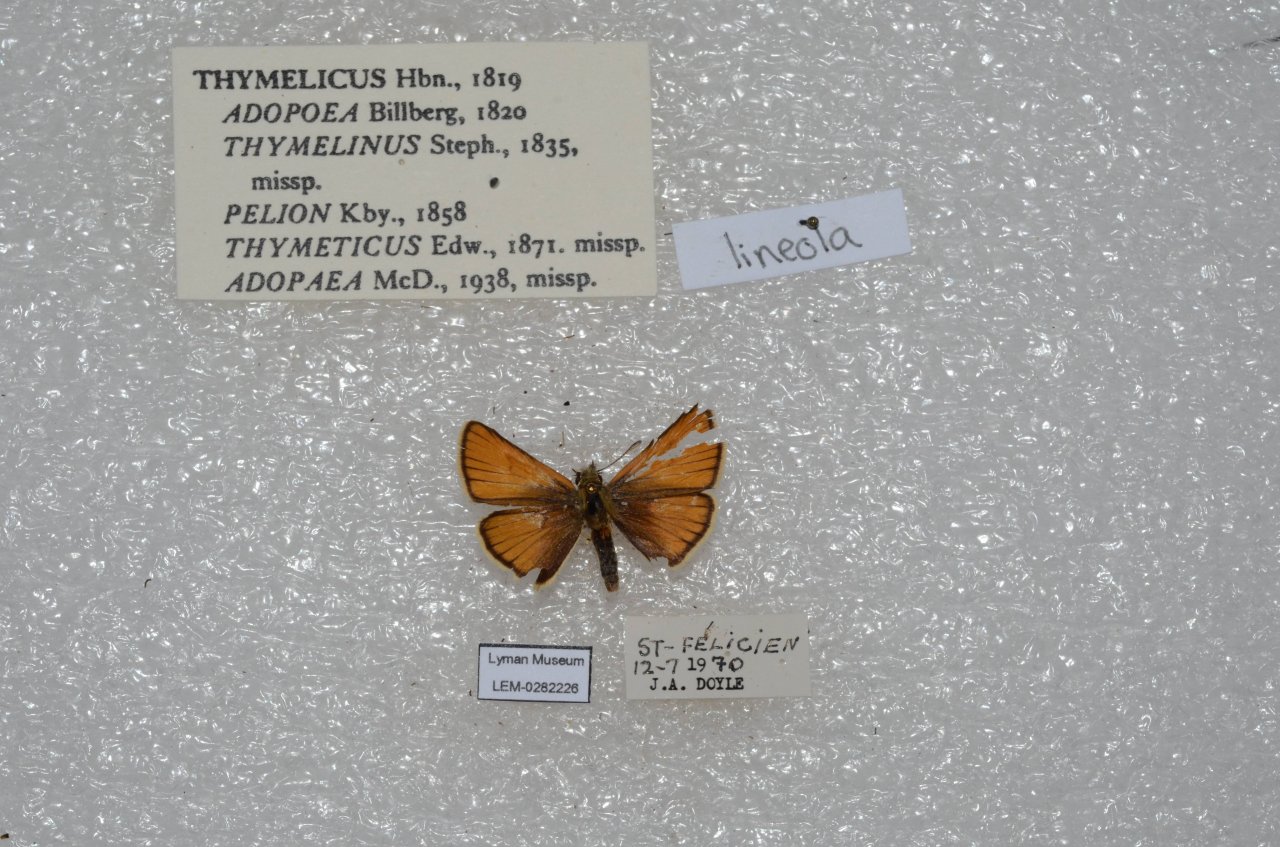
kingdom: Animalia
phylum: Arthropoda
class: Insecta
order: Lepidoptera
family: Hesperiidae
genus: Thymelicus
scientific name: Thymelicus lineola
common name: European Skipper
